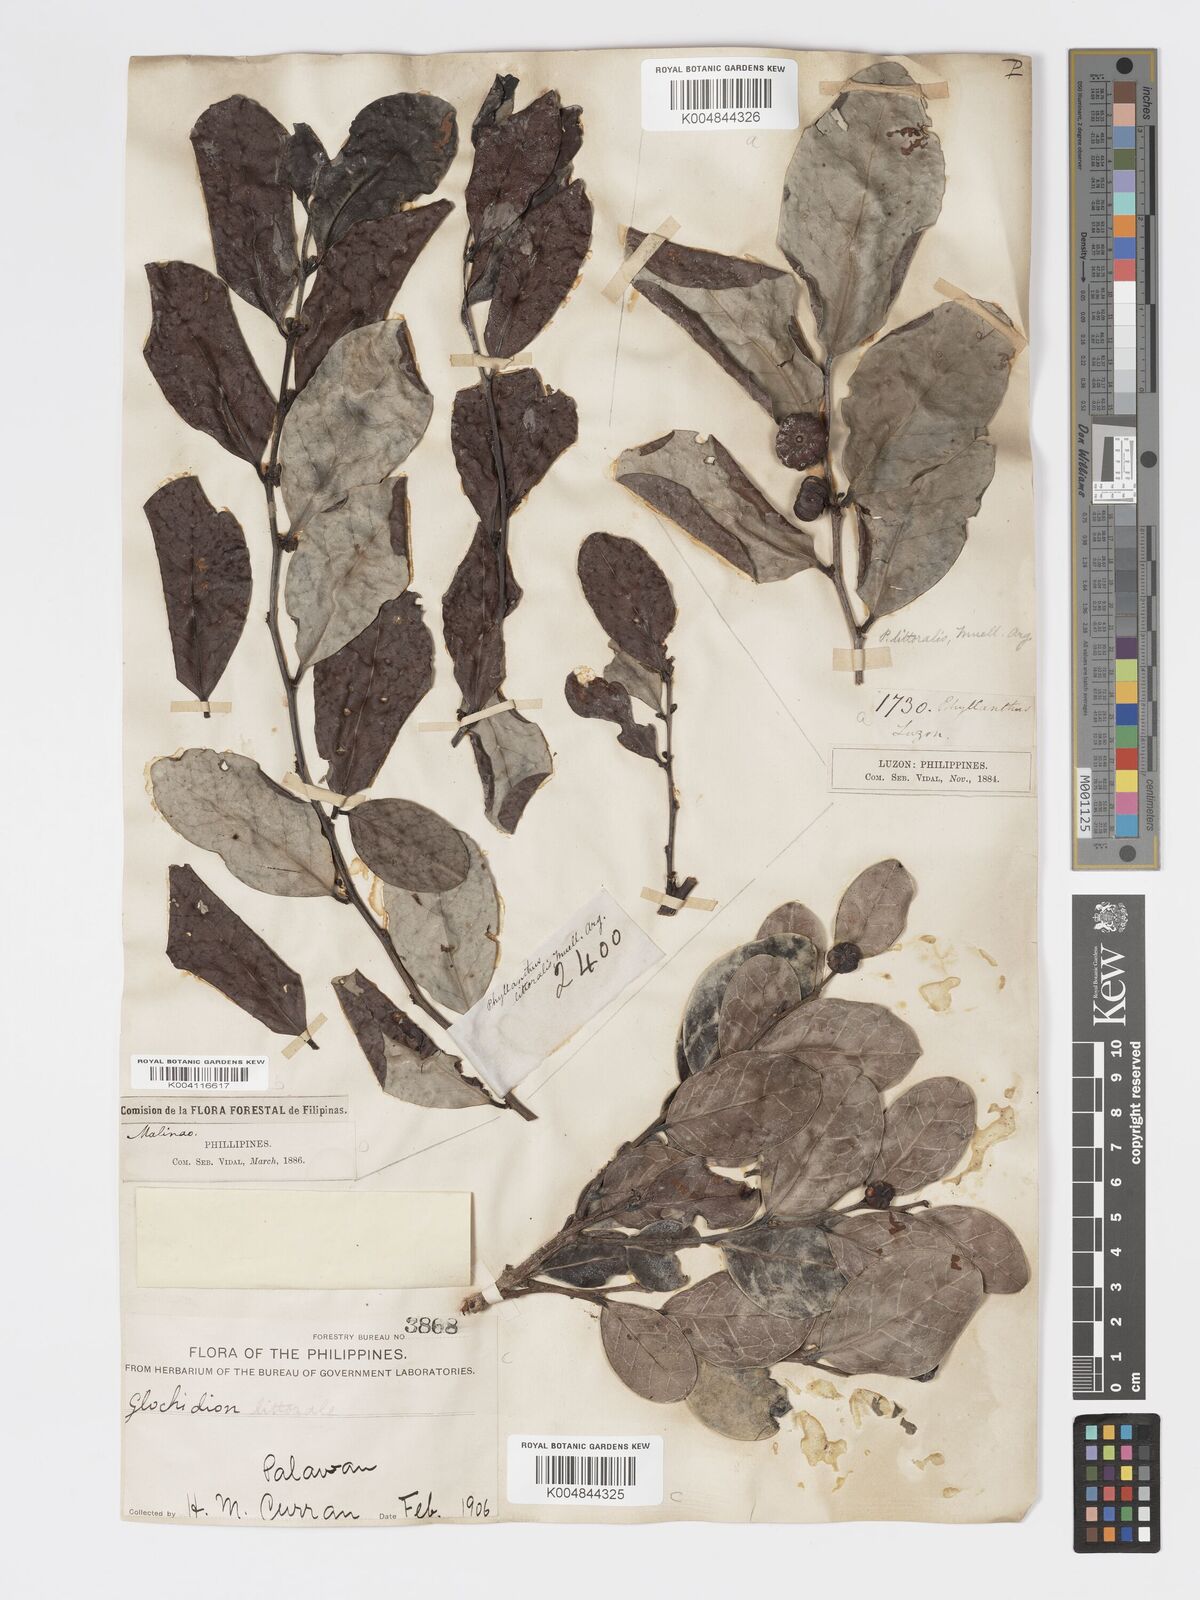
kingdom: Plantae
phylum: Tracheophyta
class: Magnoliopsida
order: Malpighiales
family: Phyllanthaceae
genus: Glochidion
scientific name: Glochidion
